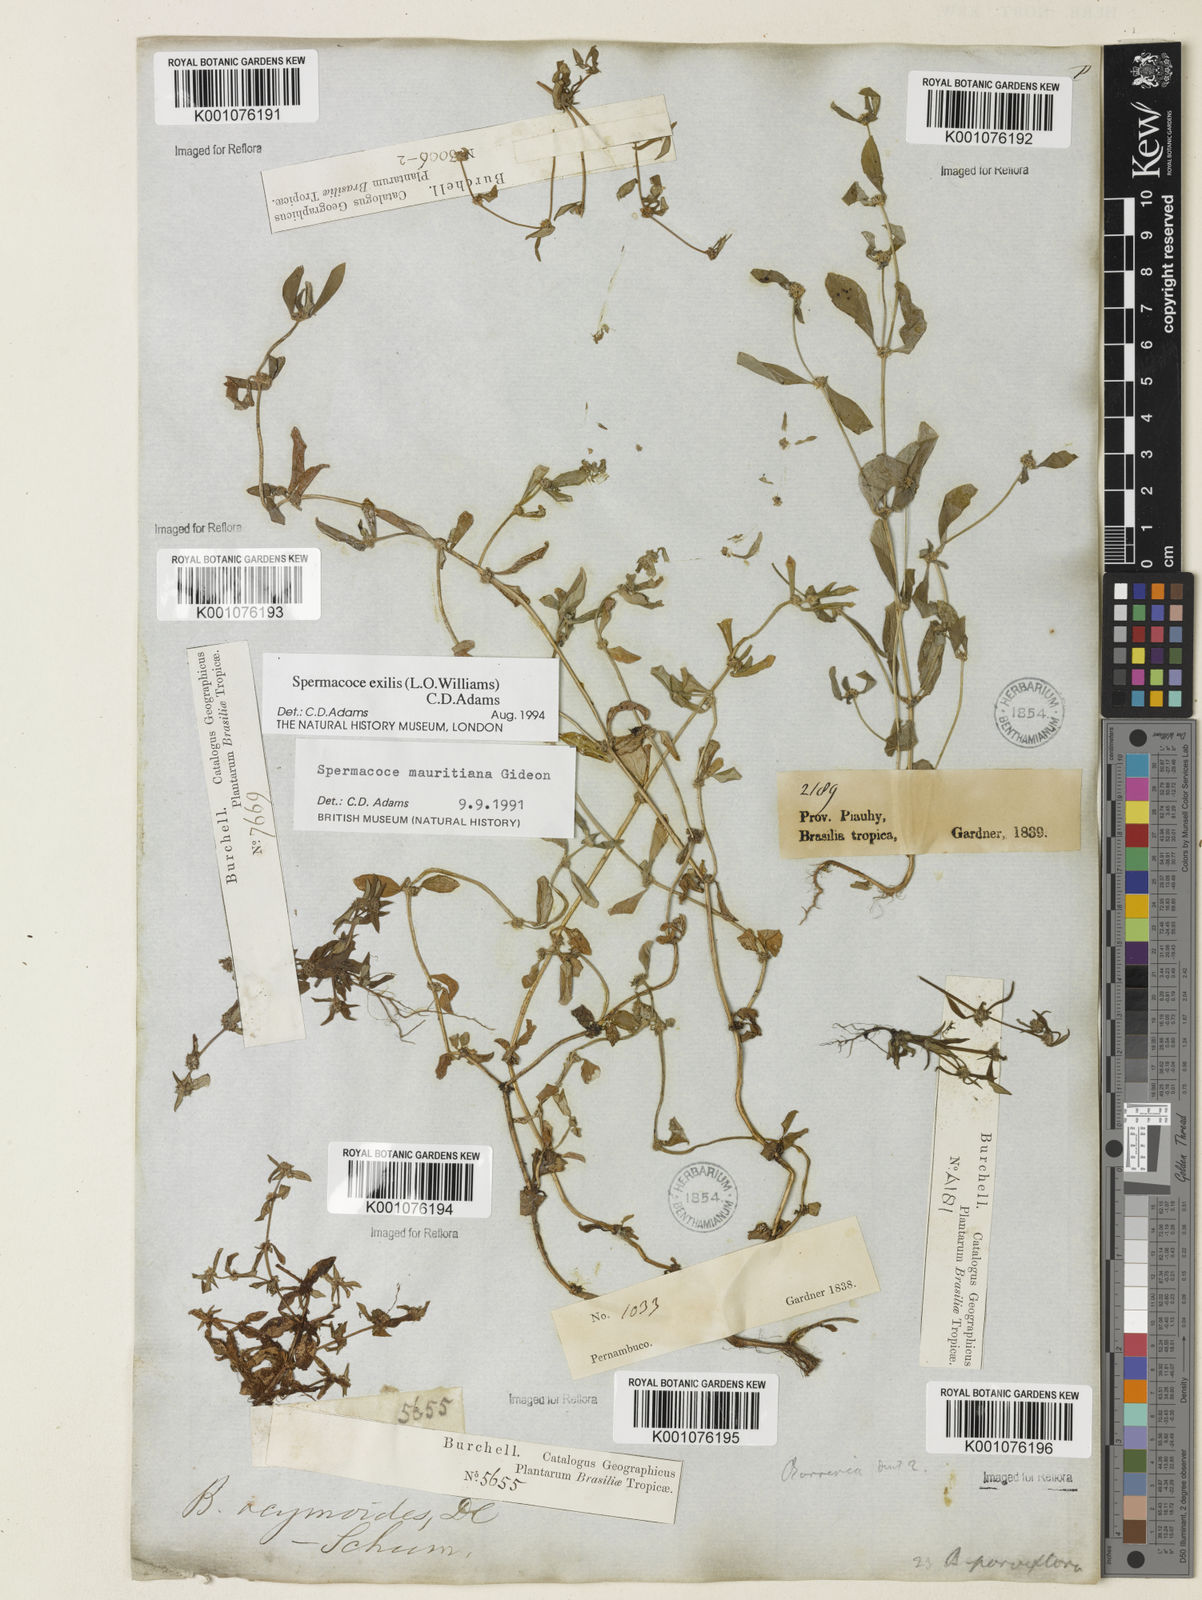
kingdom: Plantae
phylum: Tracheophyta
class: Magnoliopsida
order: Gentianales
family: Rubiaceae
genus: Spermacoce
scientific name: Spermacoce exilis
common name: Pacific false buttonweed
